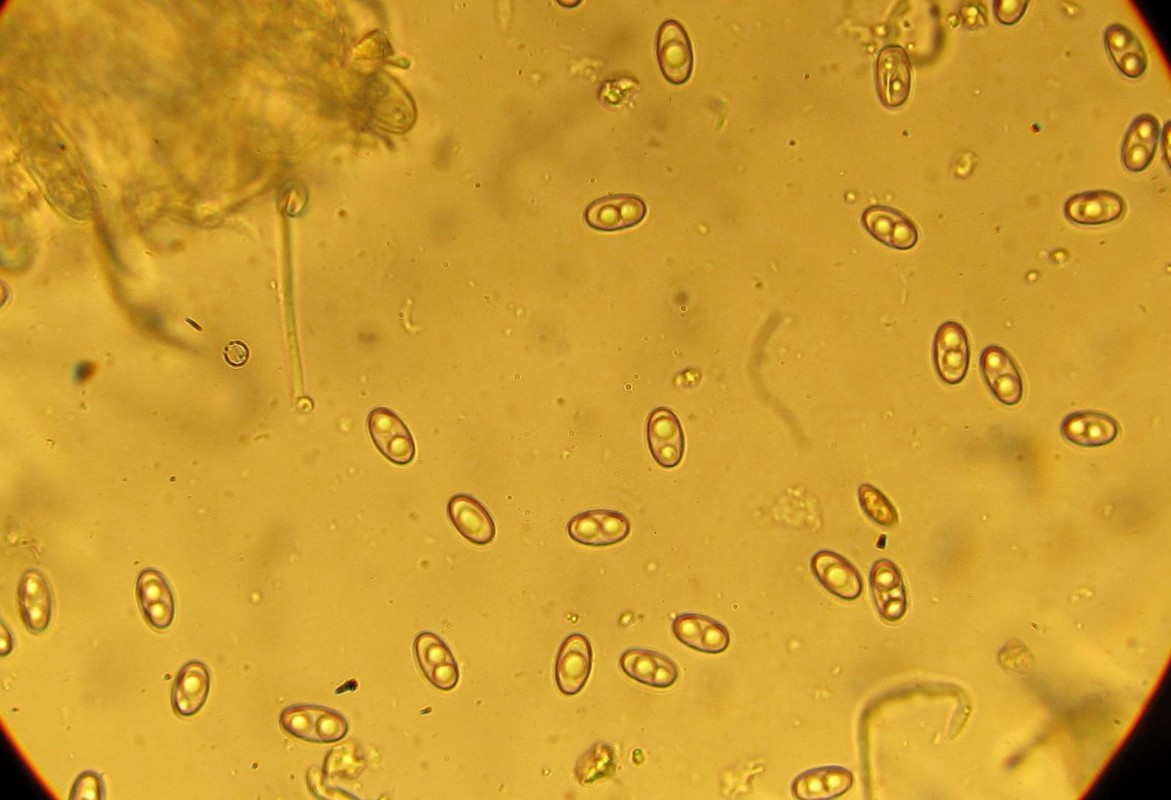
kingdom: Fungi
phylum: Ascomycota
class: Pezizomycetes
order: Pezizales
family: Otideaceae
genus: Otidea
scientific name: Otidea alutacea
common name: læder-ørebæger
